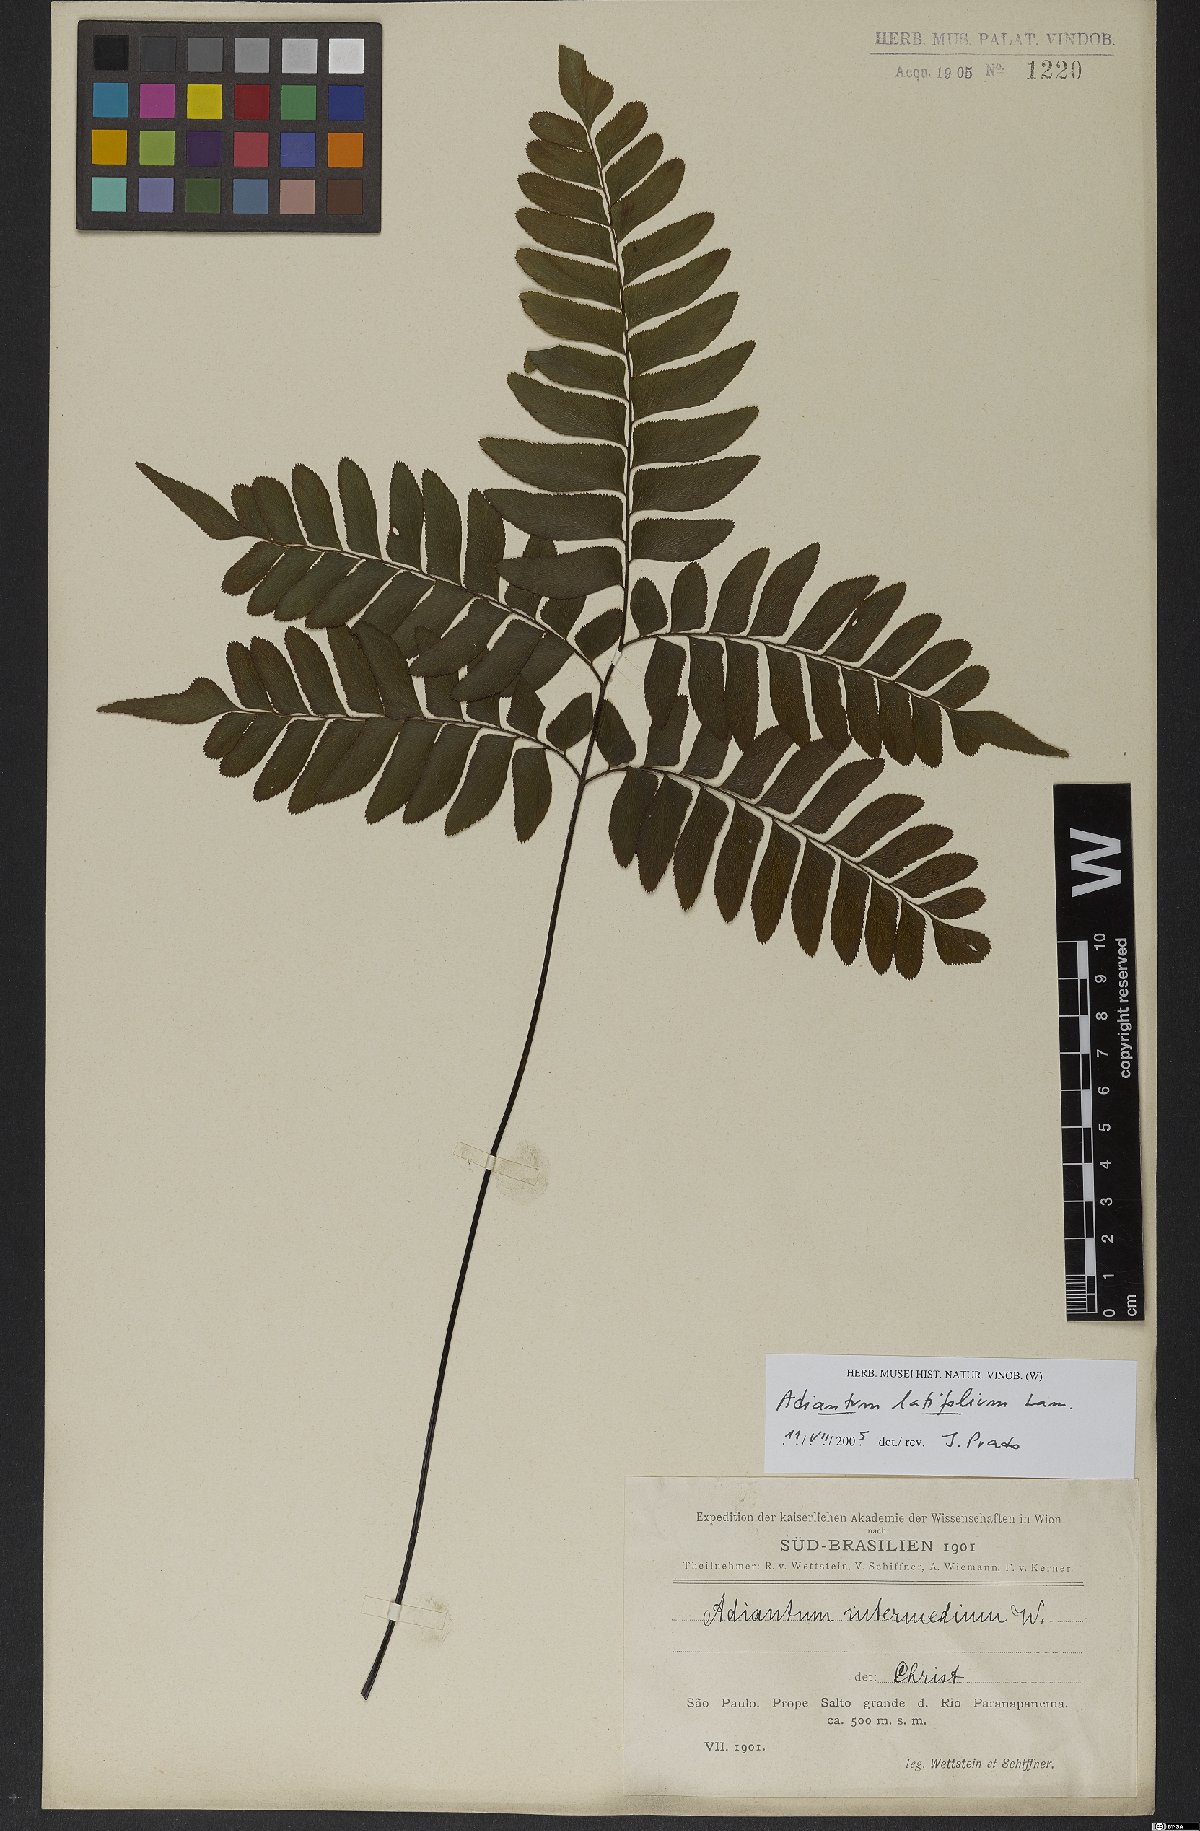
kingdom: Plantae
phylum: Tracheophyta
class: Polypodiopsida
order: Polypodiales
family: Pteridaceae
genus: Adiantum
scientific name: Adiantum latifolium
